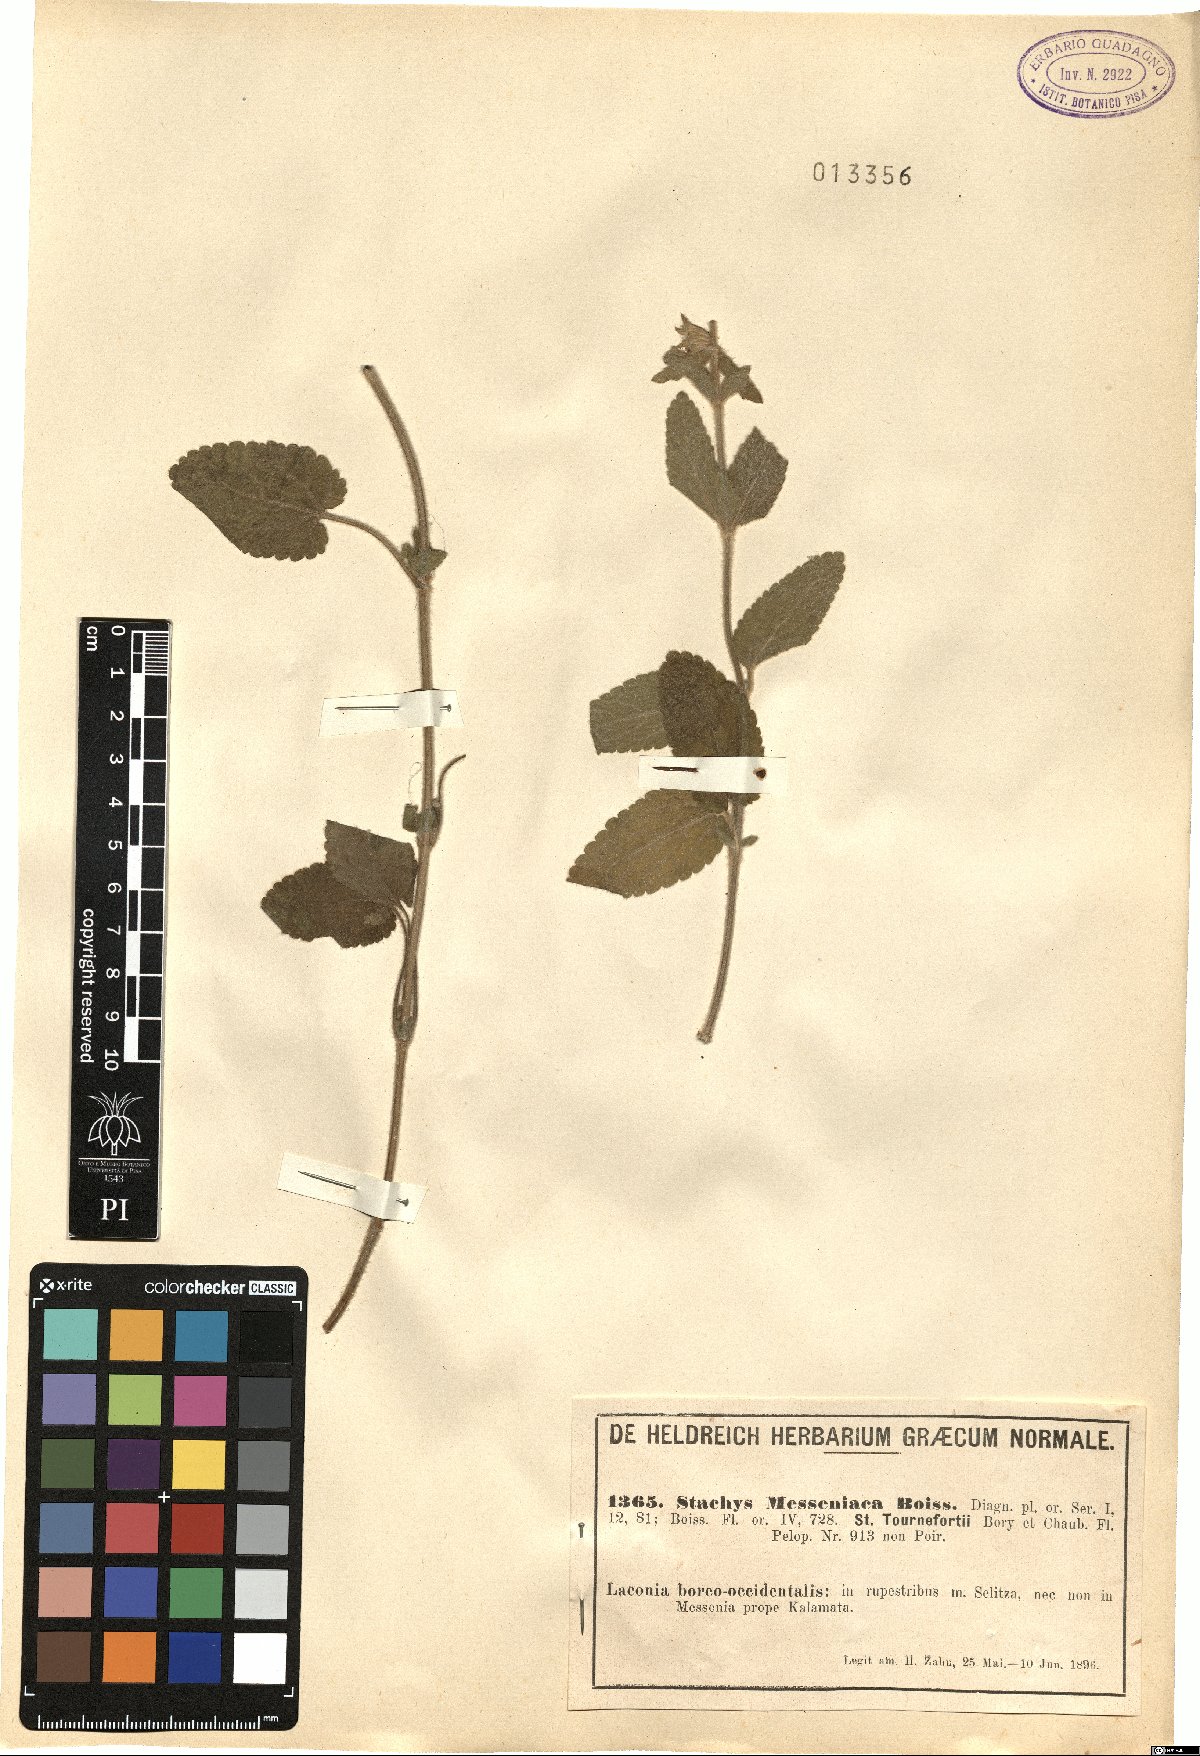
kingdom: Plantae
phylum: Tracheophyta
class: Magnoliopsida
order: Lamiales
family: Lamiaceae
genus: Stachys
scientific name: Stachys canescens
